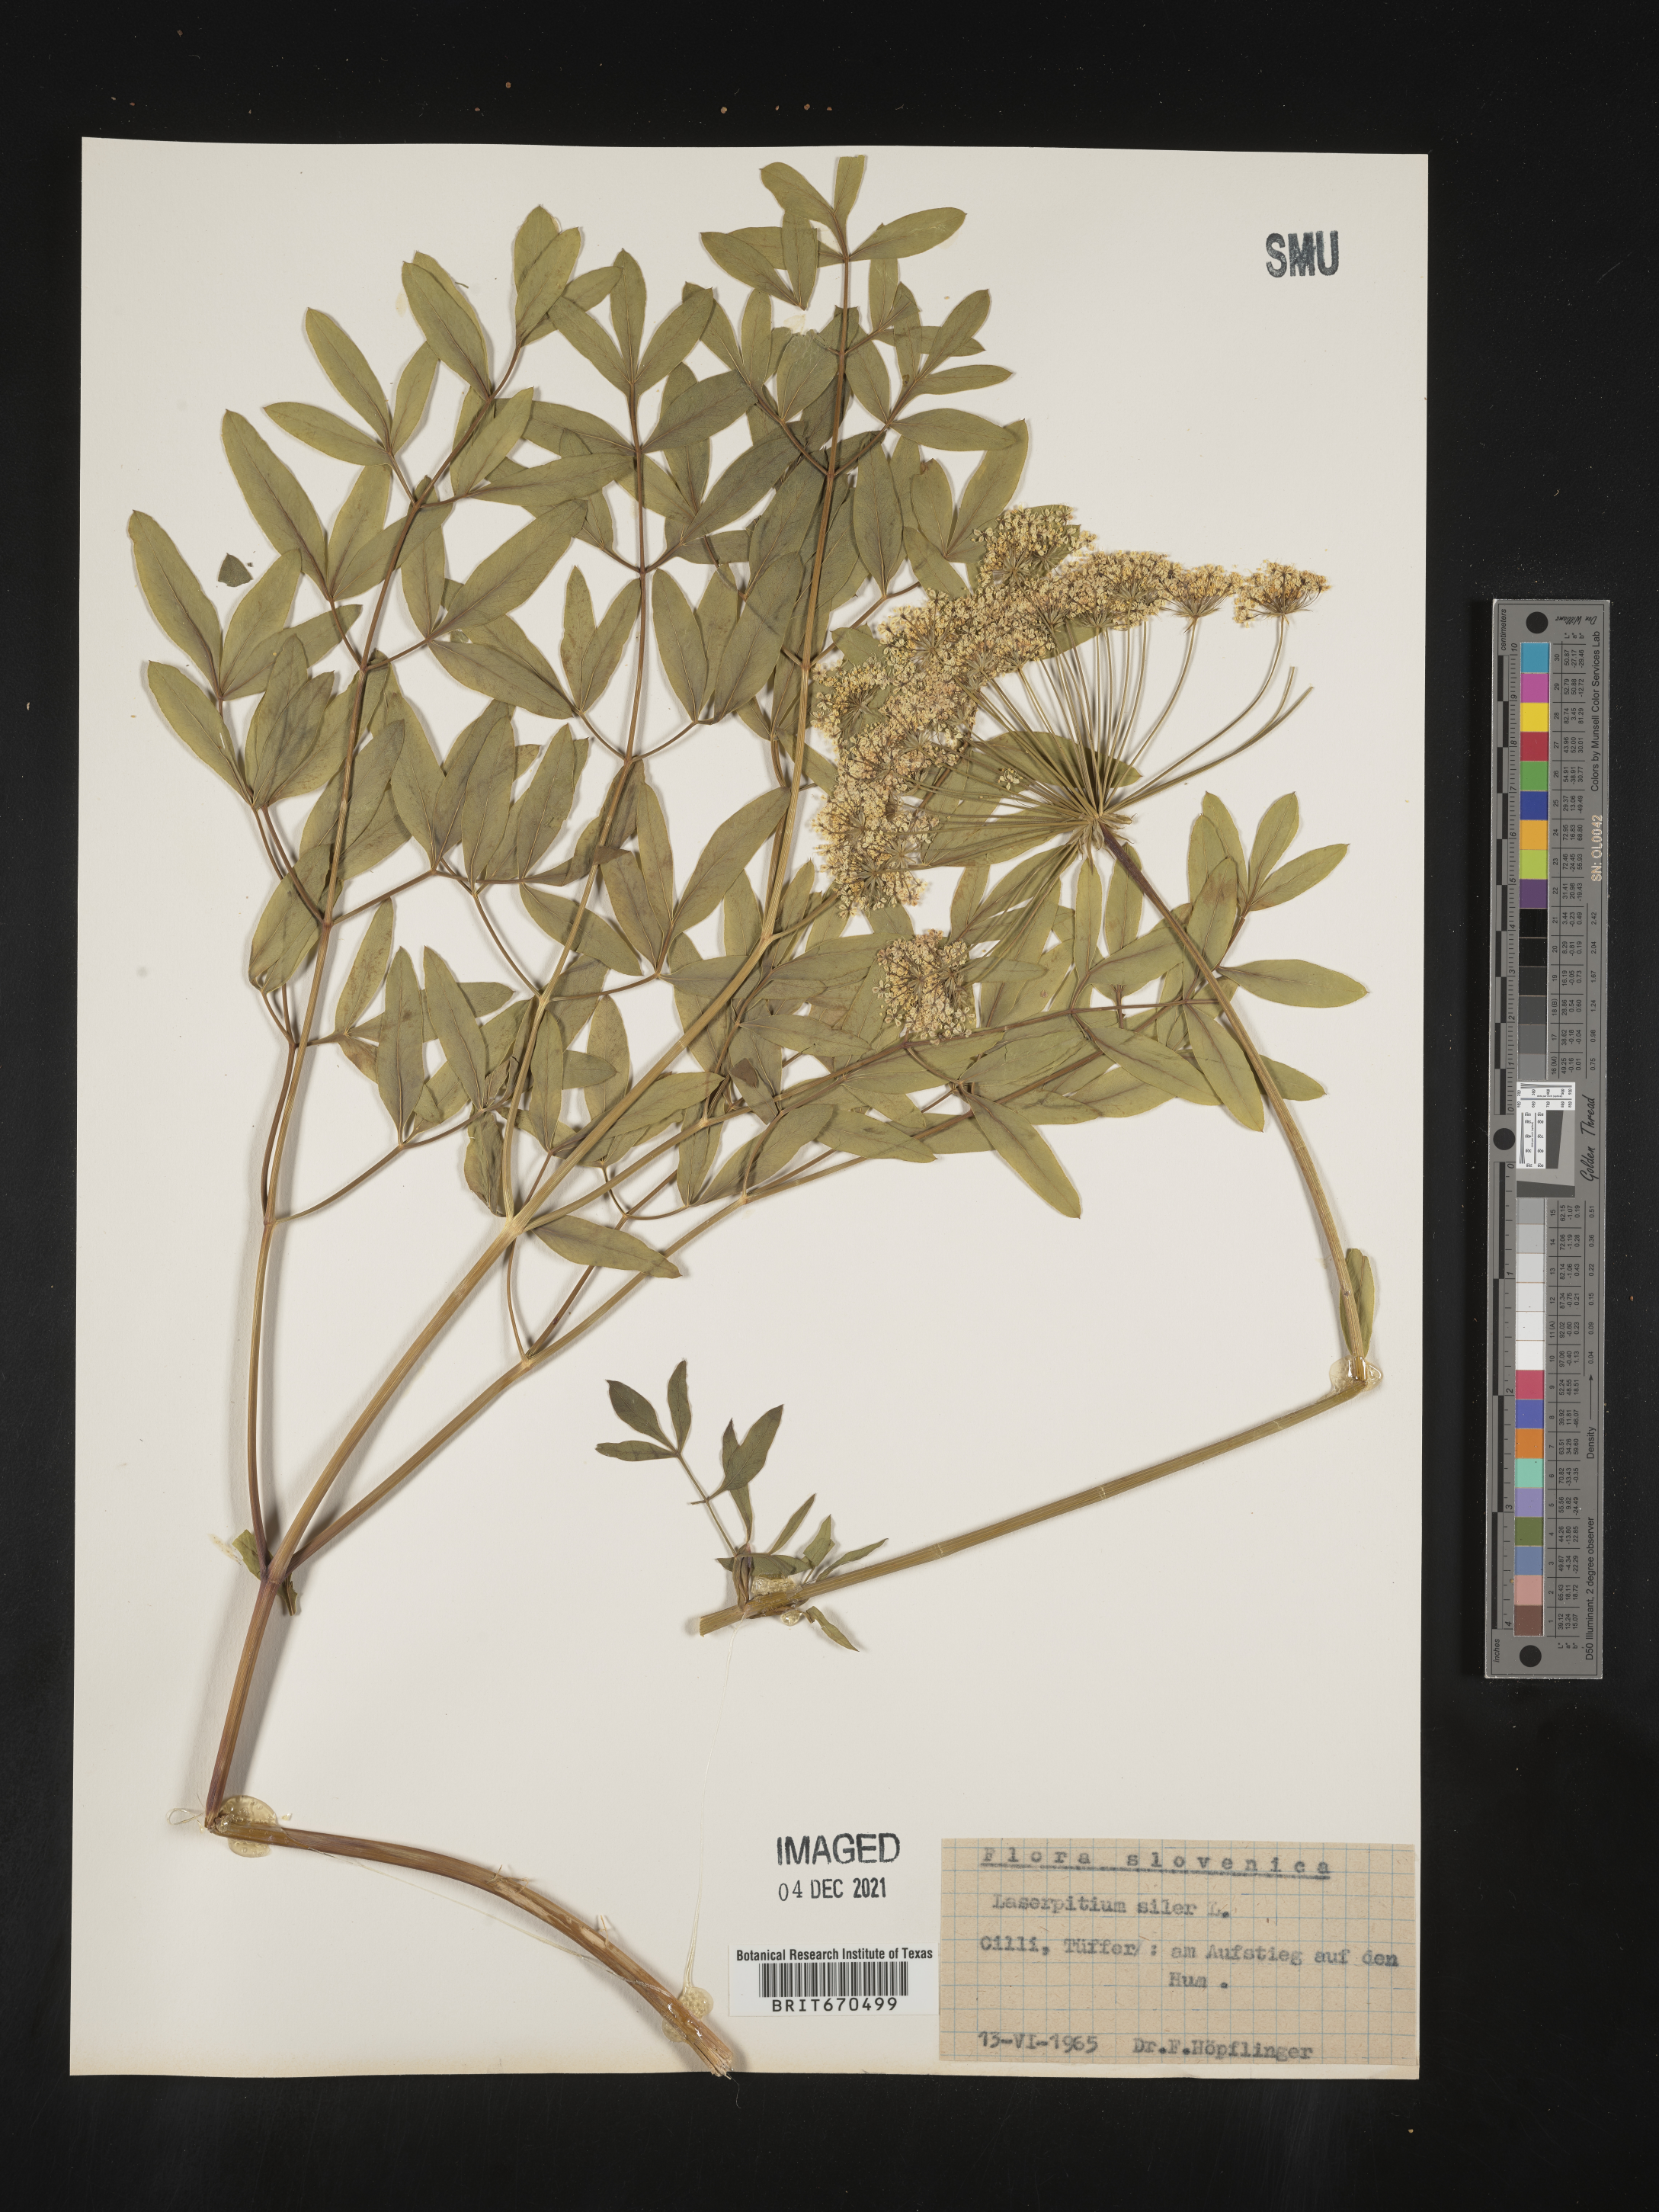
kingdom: Plantae
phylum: Tracheophyta
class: Magnoliopsida
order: Apiales
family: Apiaceae
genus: Laserpitium
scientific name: Laserpitium
